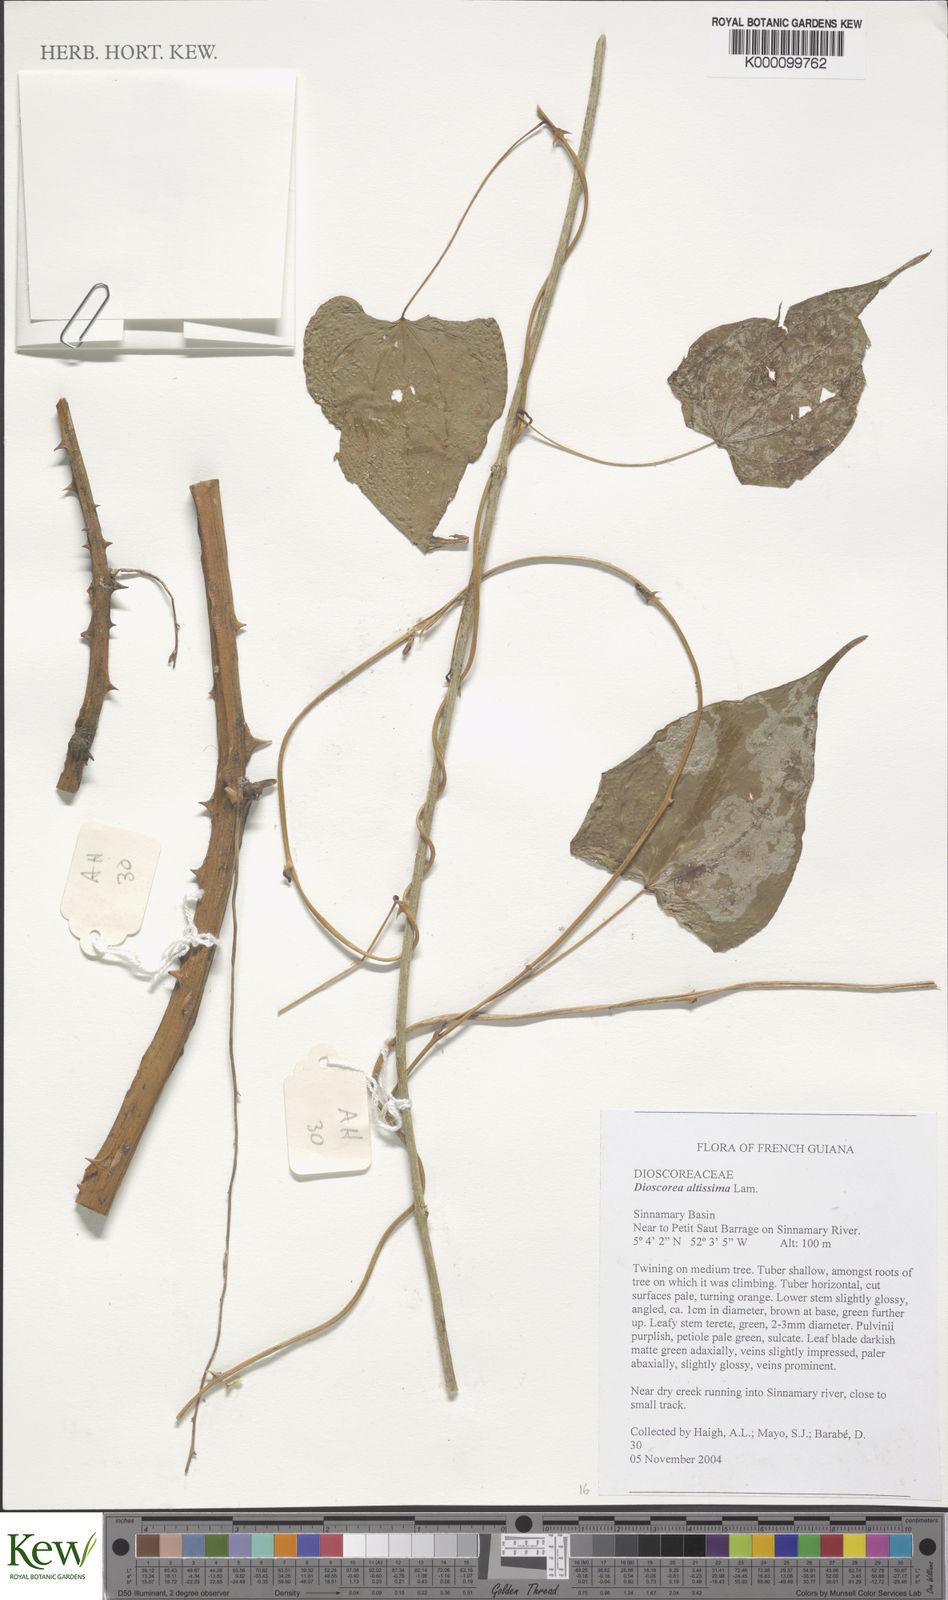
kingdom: Plantae
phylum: Tracheophyta
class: Liliopsida
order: Dioscoreales
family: Dioscoreaceae
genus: Dioscorea
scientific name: Dioscorea chondrocarpa
